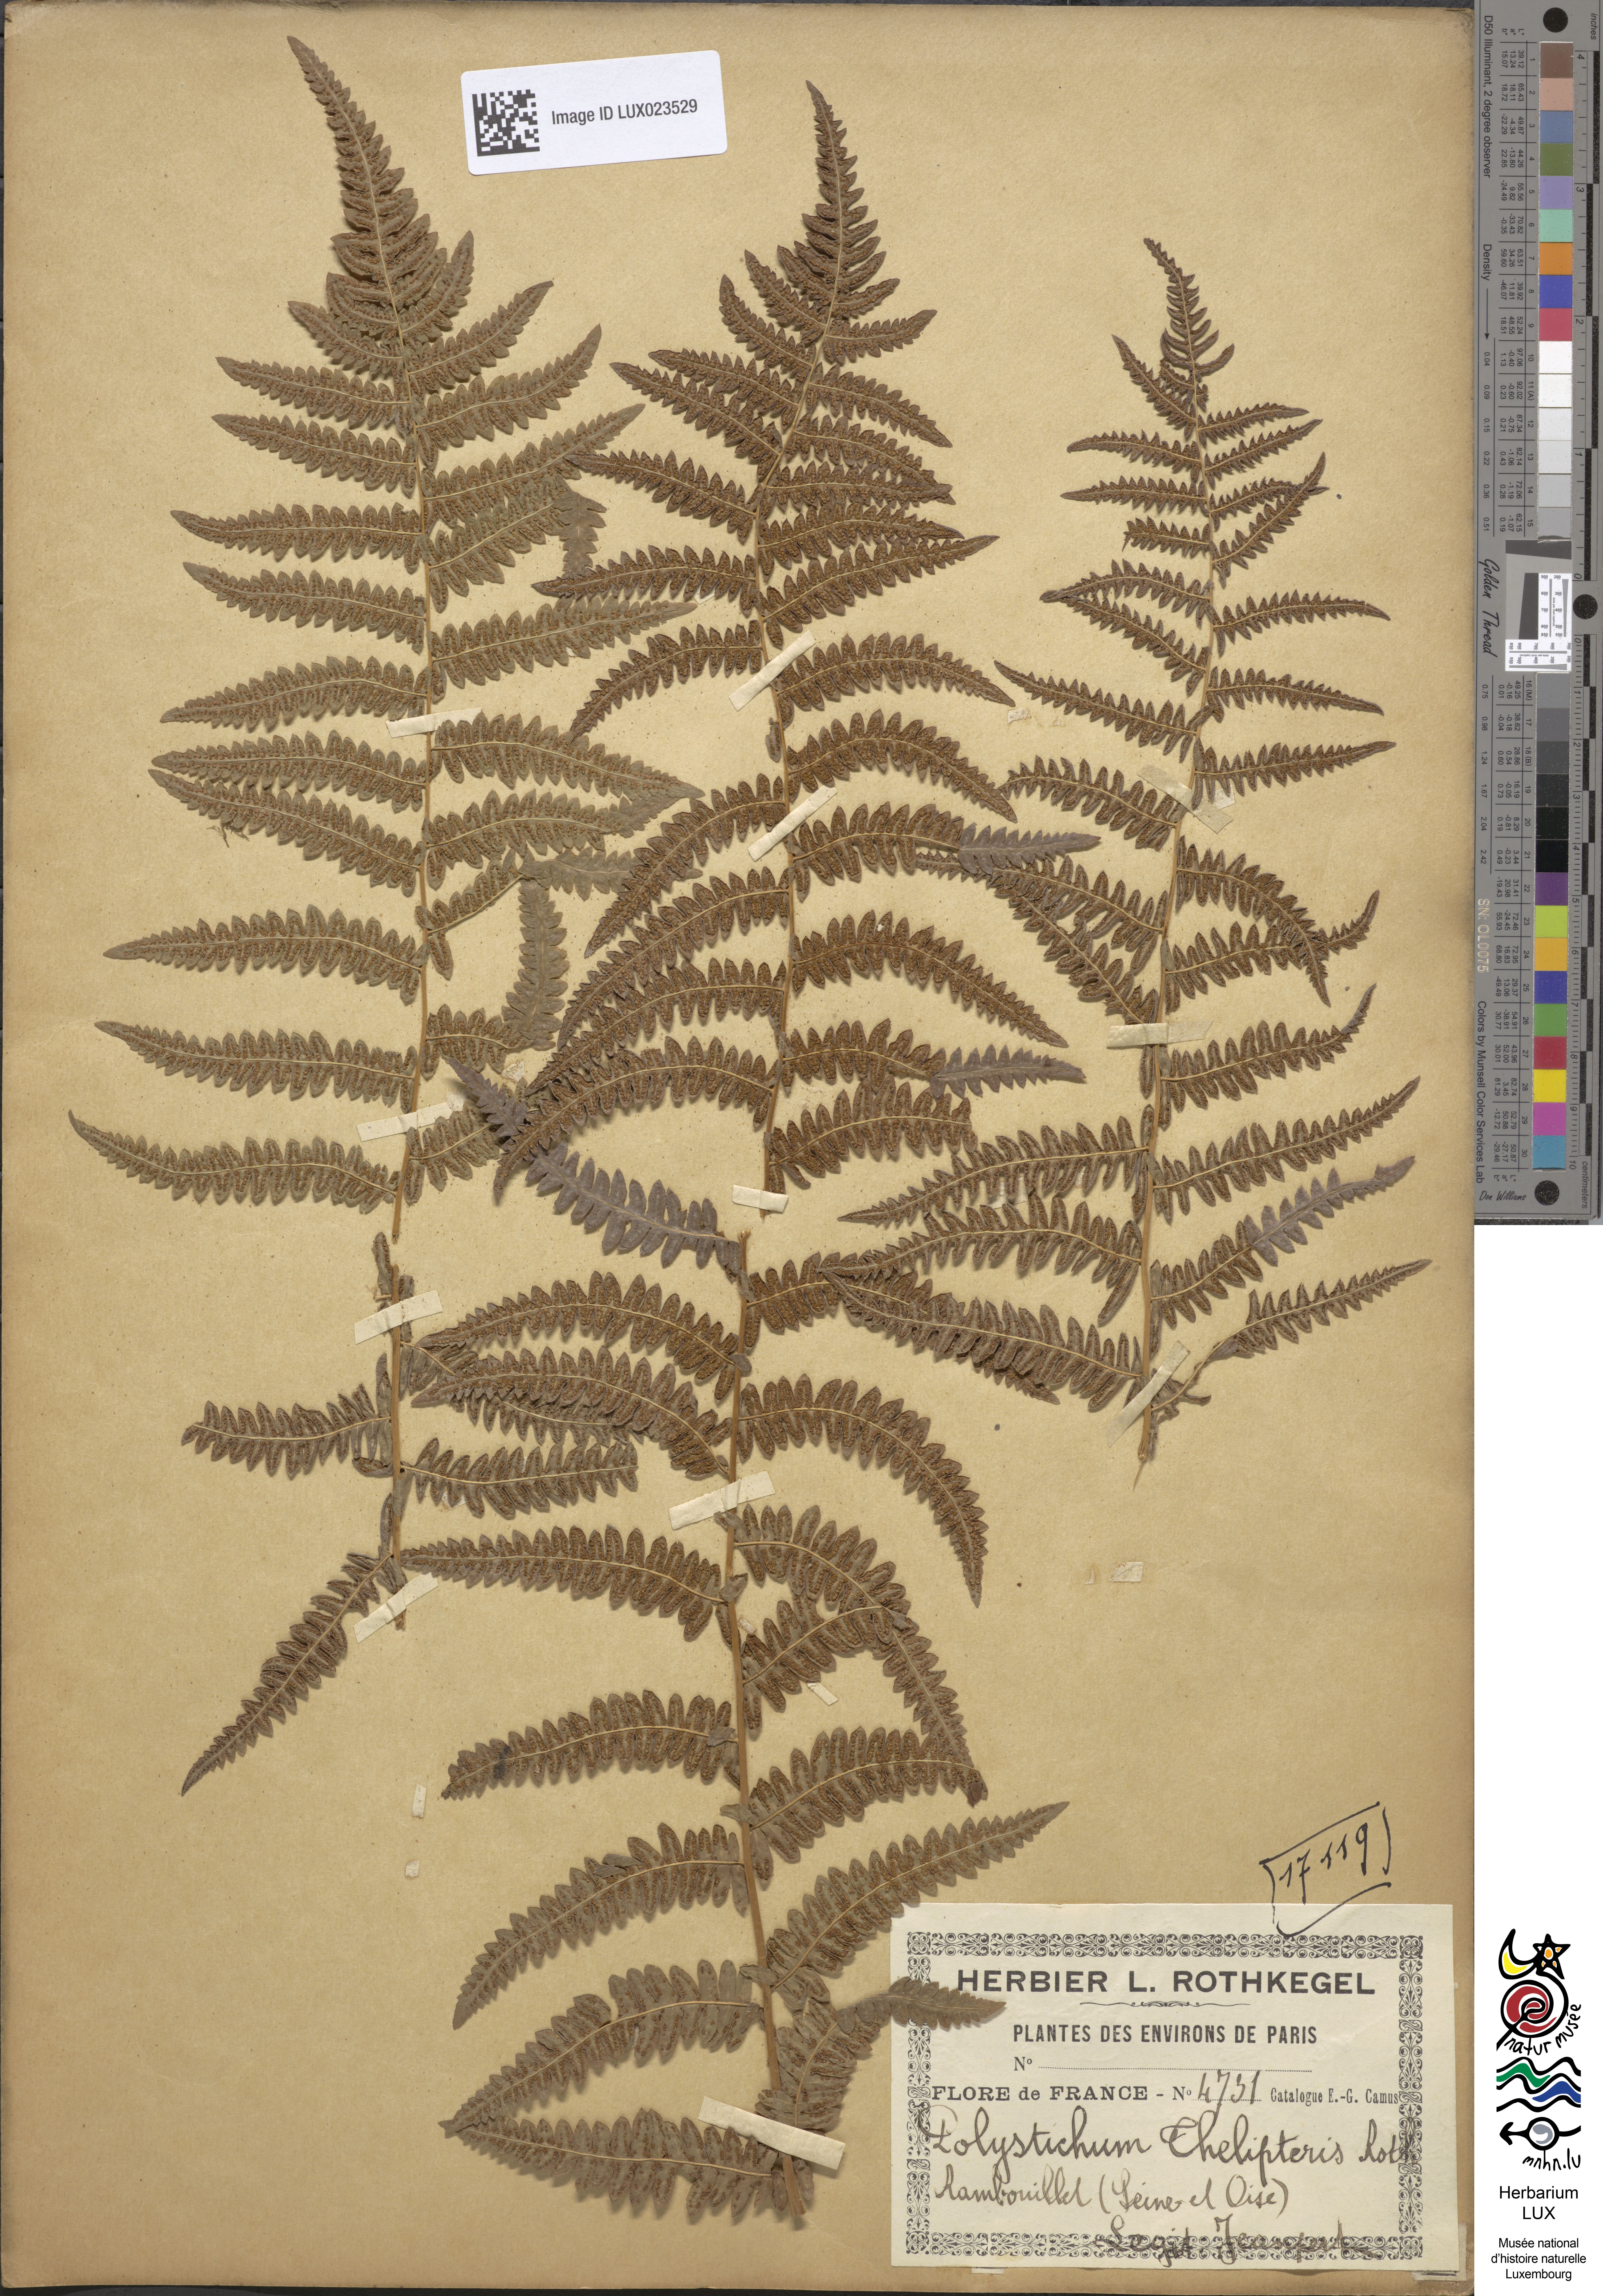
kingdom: Plantae
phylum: Tracheophyta
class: Polypodiopsida
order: Polypodiales
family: Thelypteridaceae
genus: Thelypteris
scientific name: Thelypteris palustris
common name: Marsh fern
